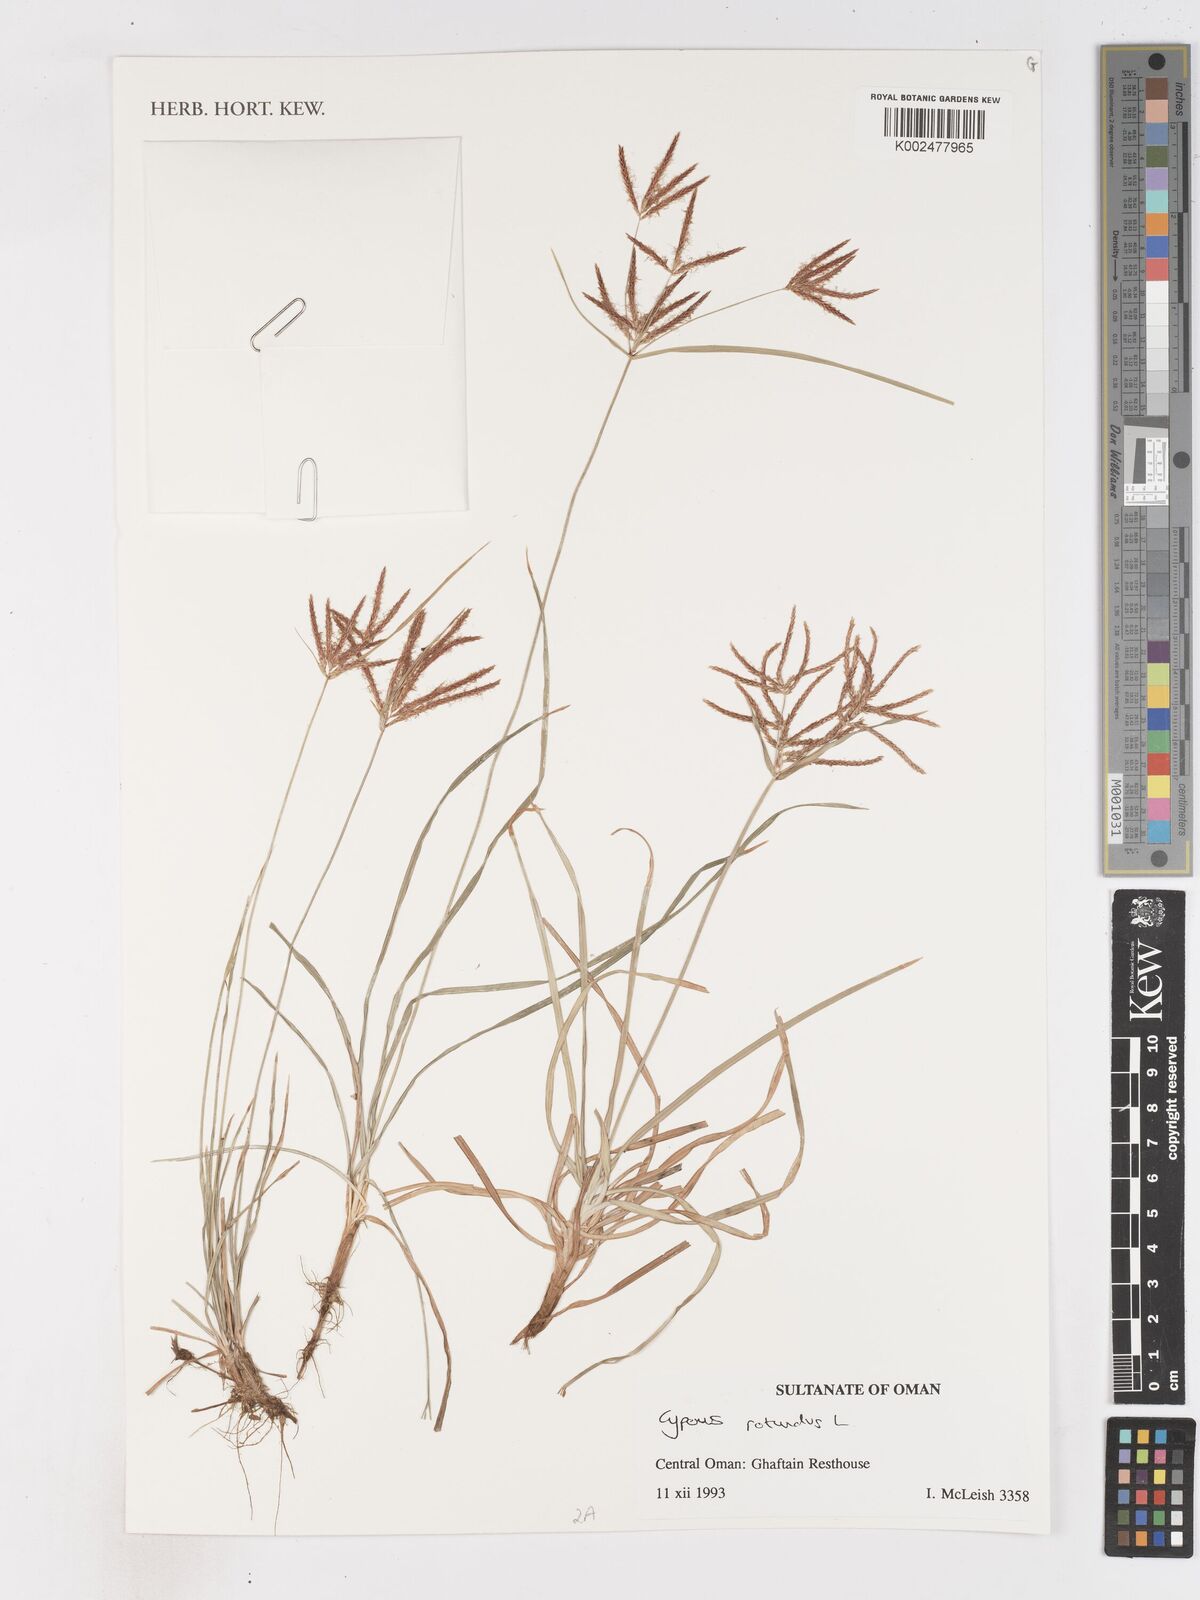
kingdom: Plantae
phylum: Tracheophyta
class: Liliopsida
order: Poales
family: Cyperaceae
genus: Cyperus
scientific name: Cyperus rotundus
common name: Nutgrass
